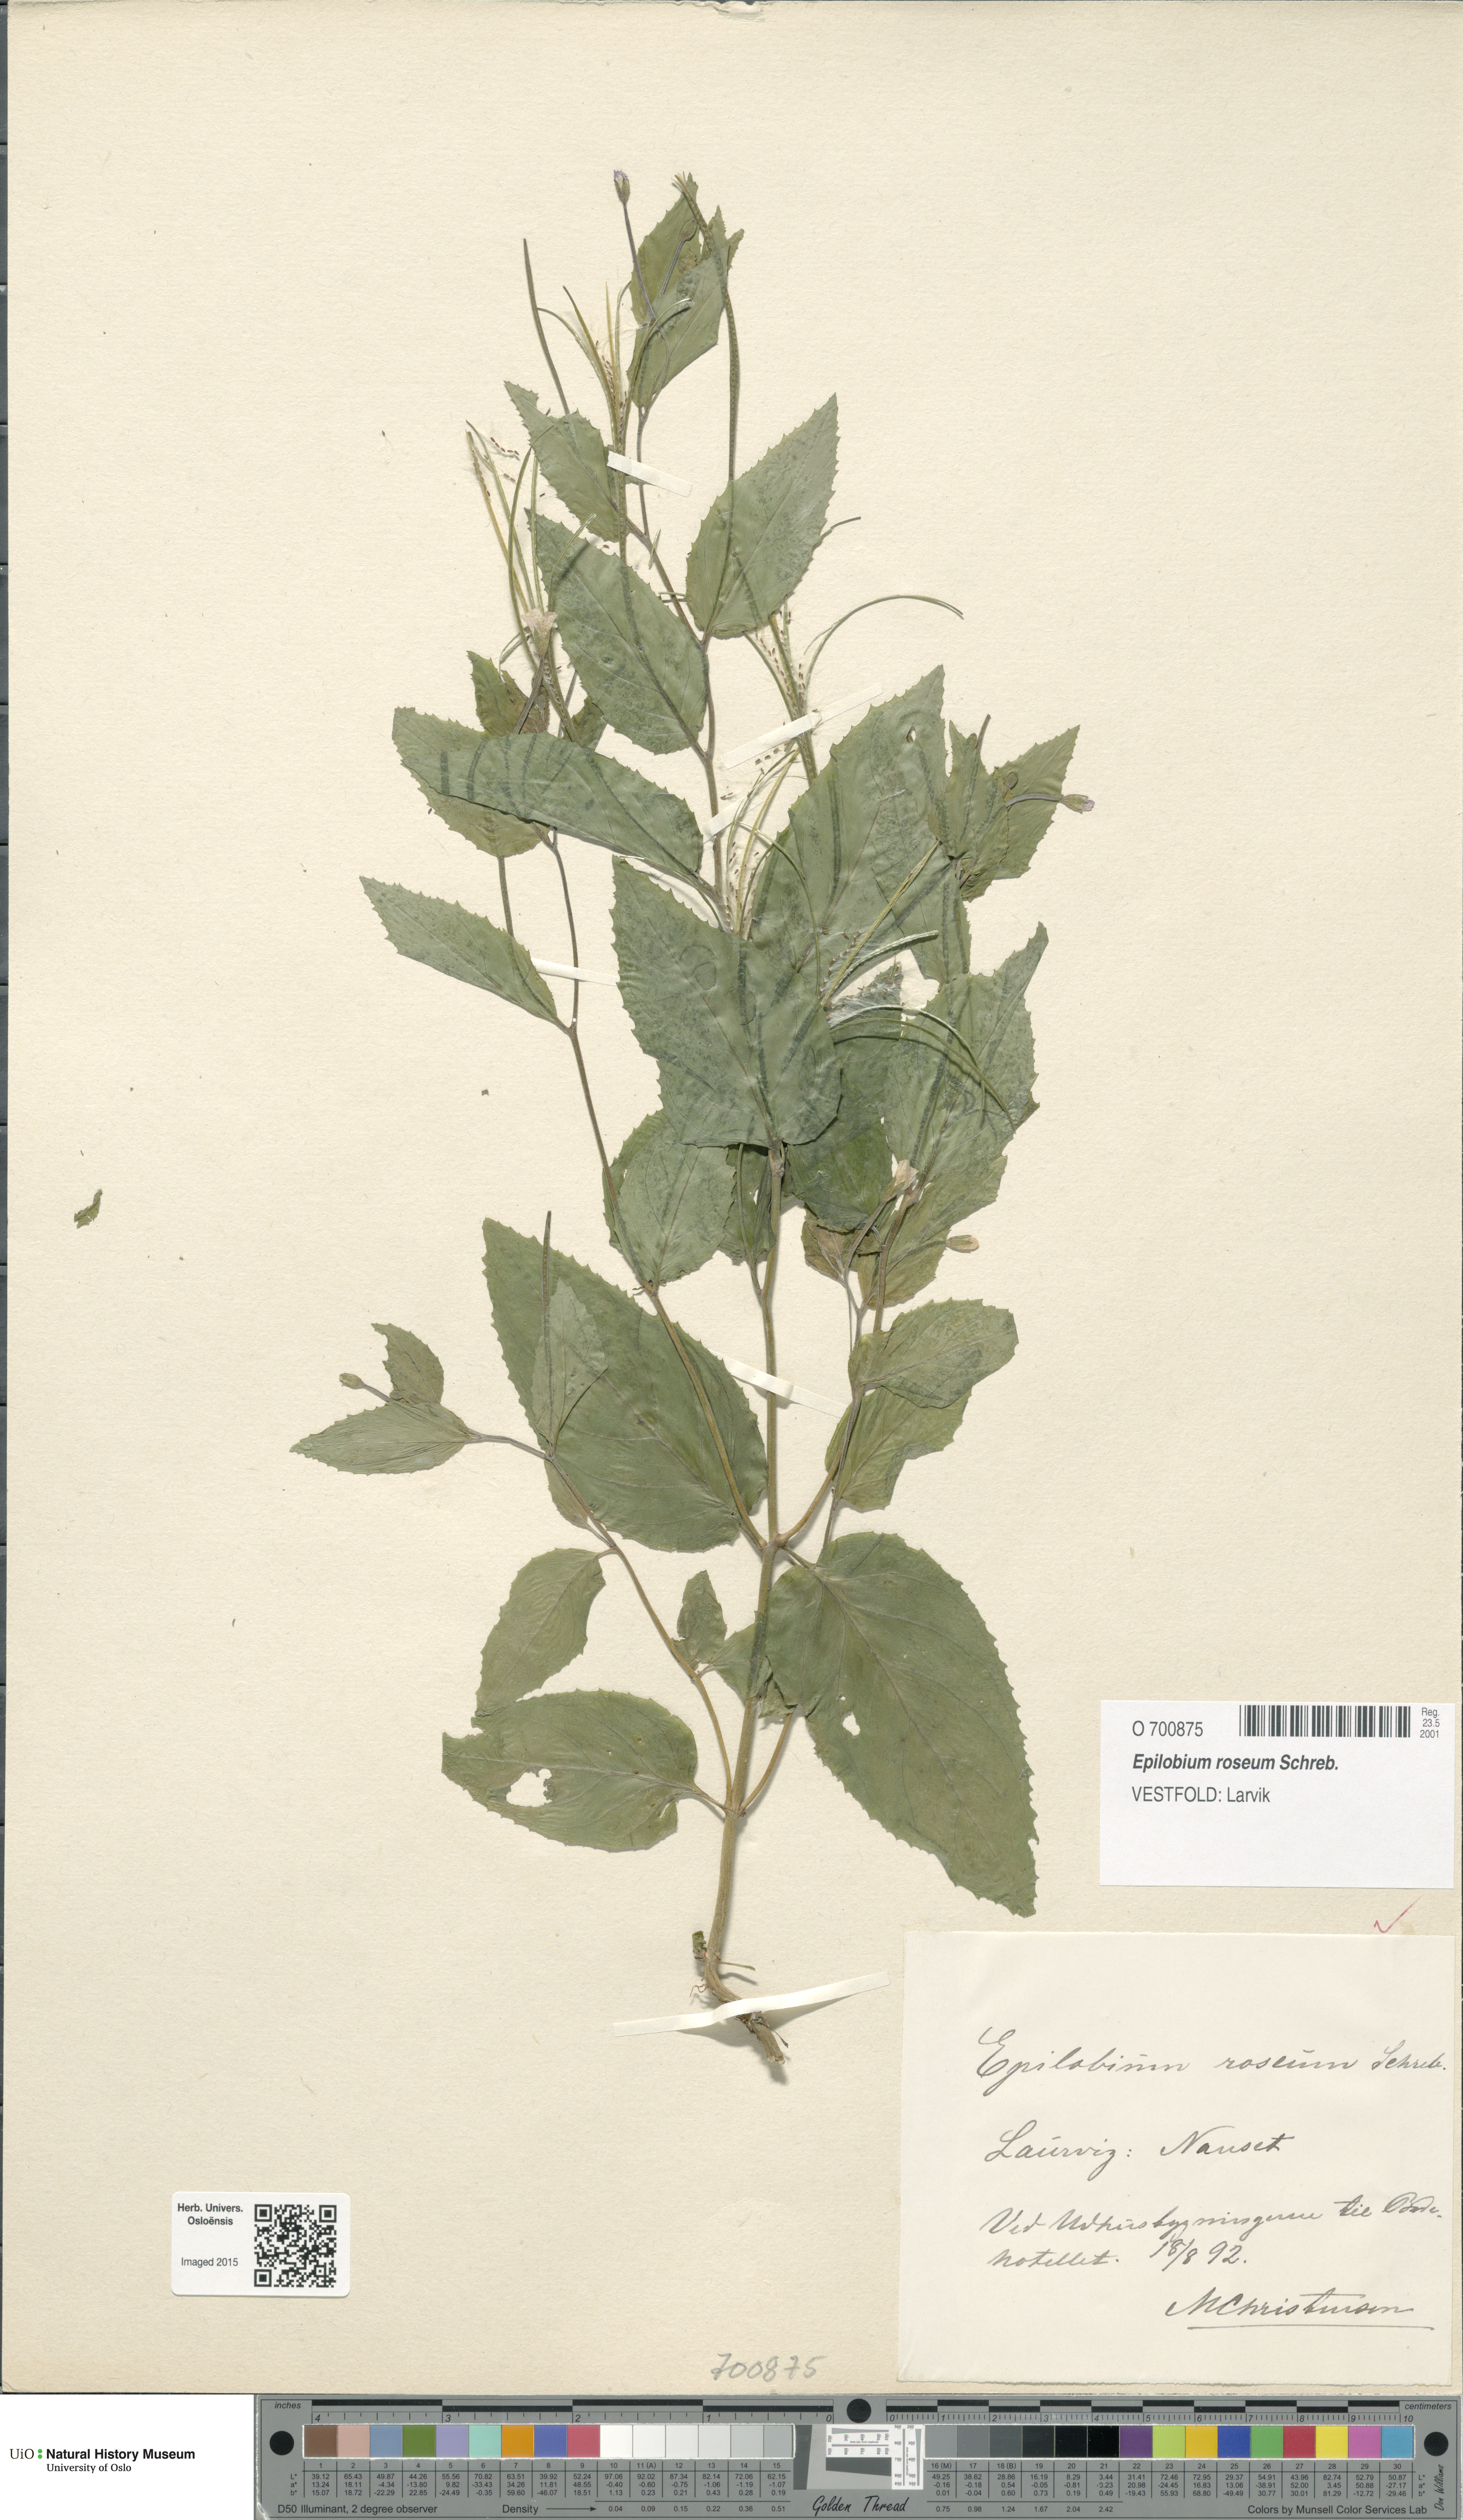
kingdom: Plantae
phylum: Tracheophyta
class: Magnoliopsida
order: Myrtales
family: Onagraceae
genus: Epilobium
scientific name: Epilobium roseum
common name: Pale willowherb
